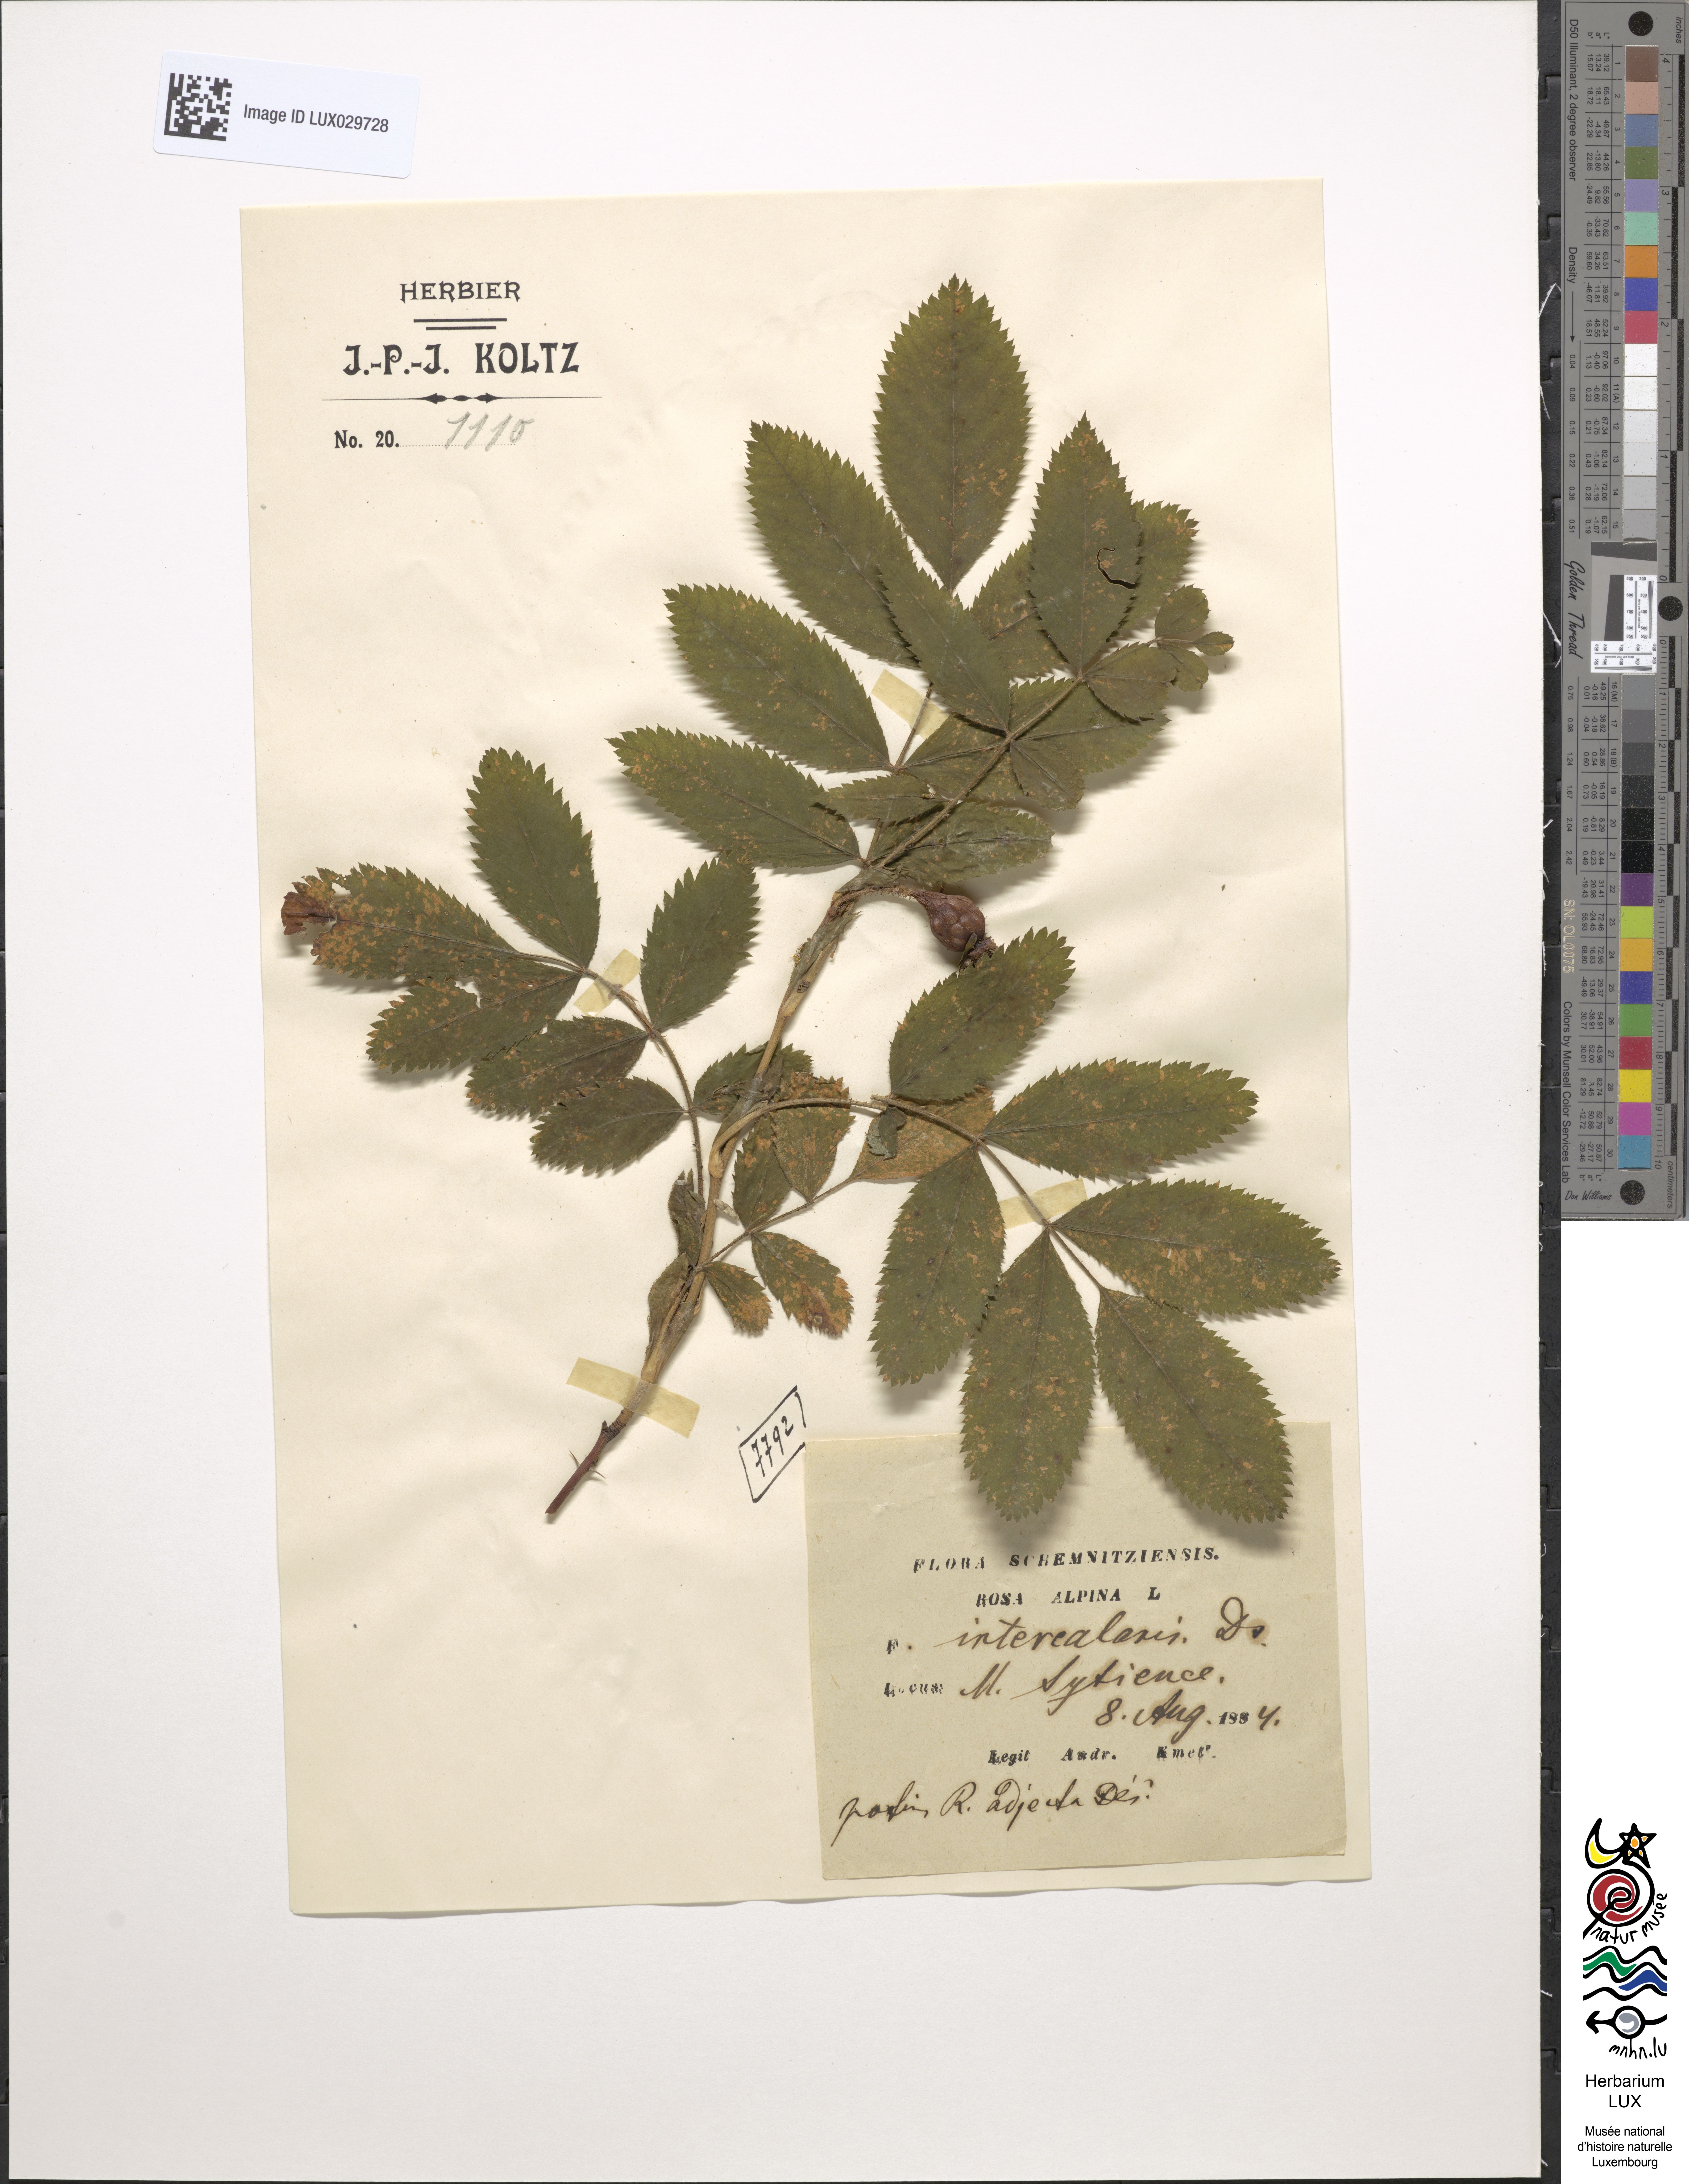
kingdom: Plantae
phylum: Tracheophyta
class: Magnoliopsida
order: Rosales
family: Rosaceae
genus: Rosa
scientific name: Rosa pendulina
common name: Alpine rose
